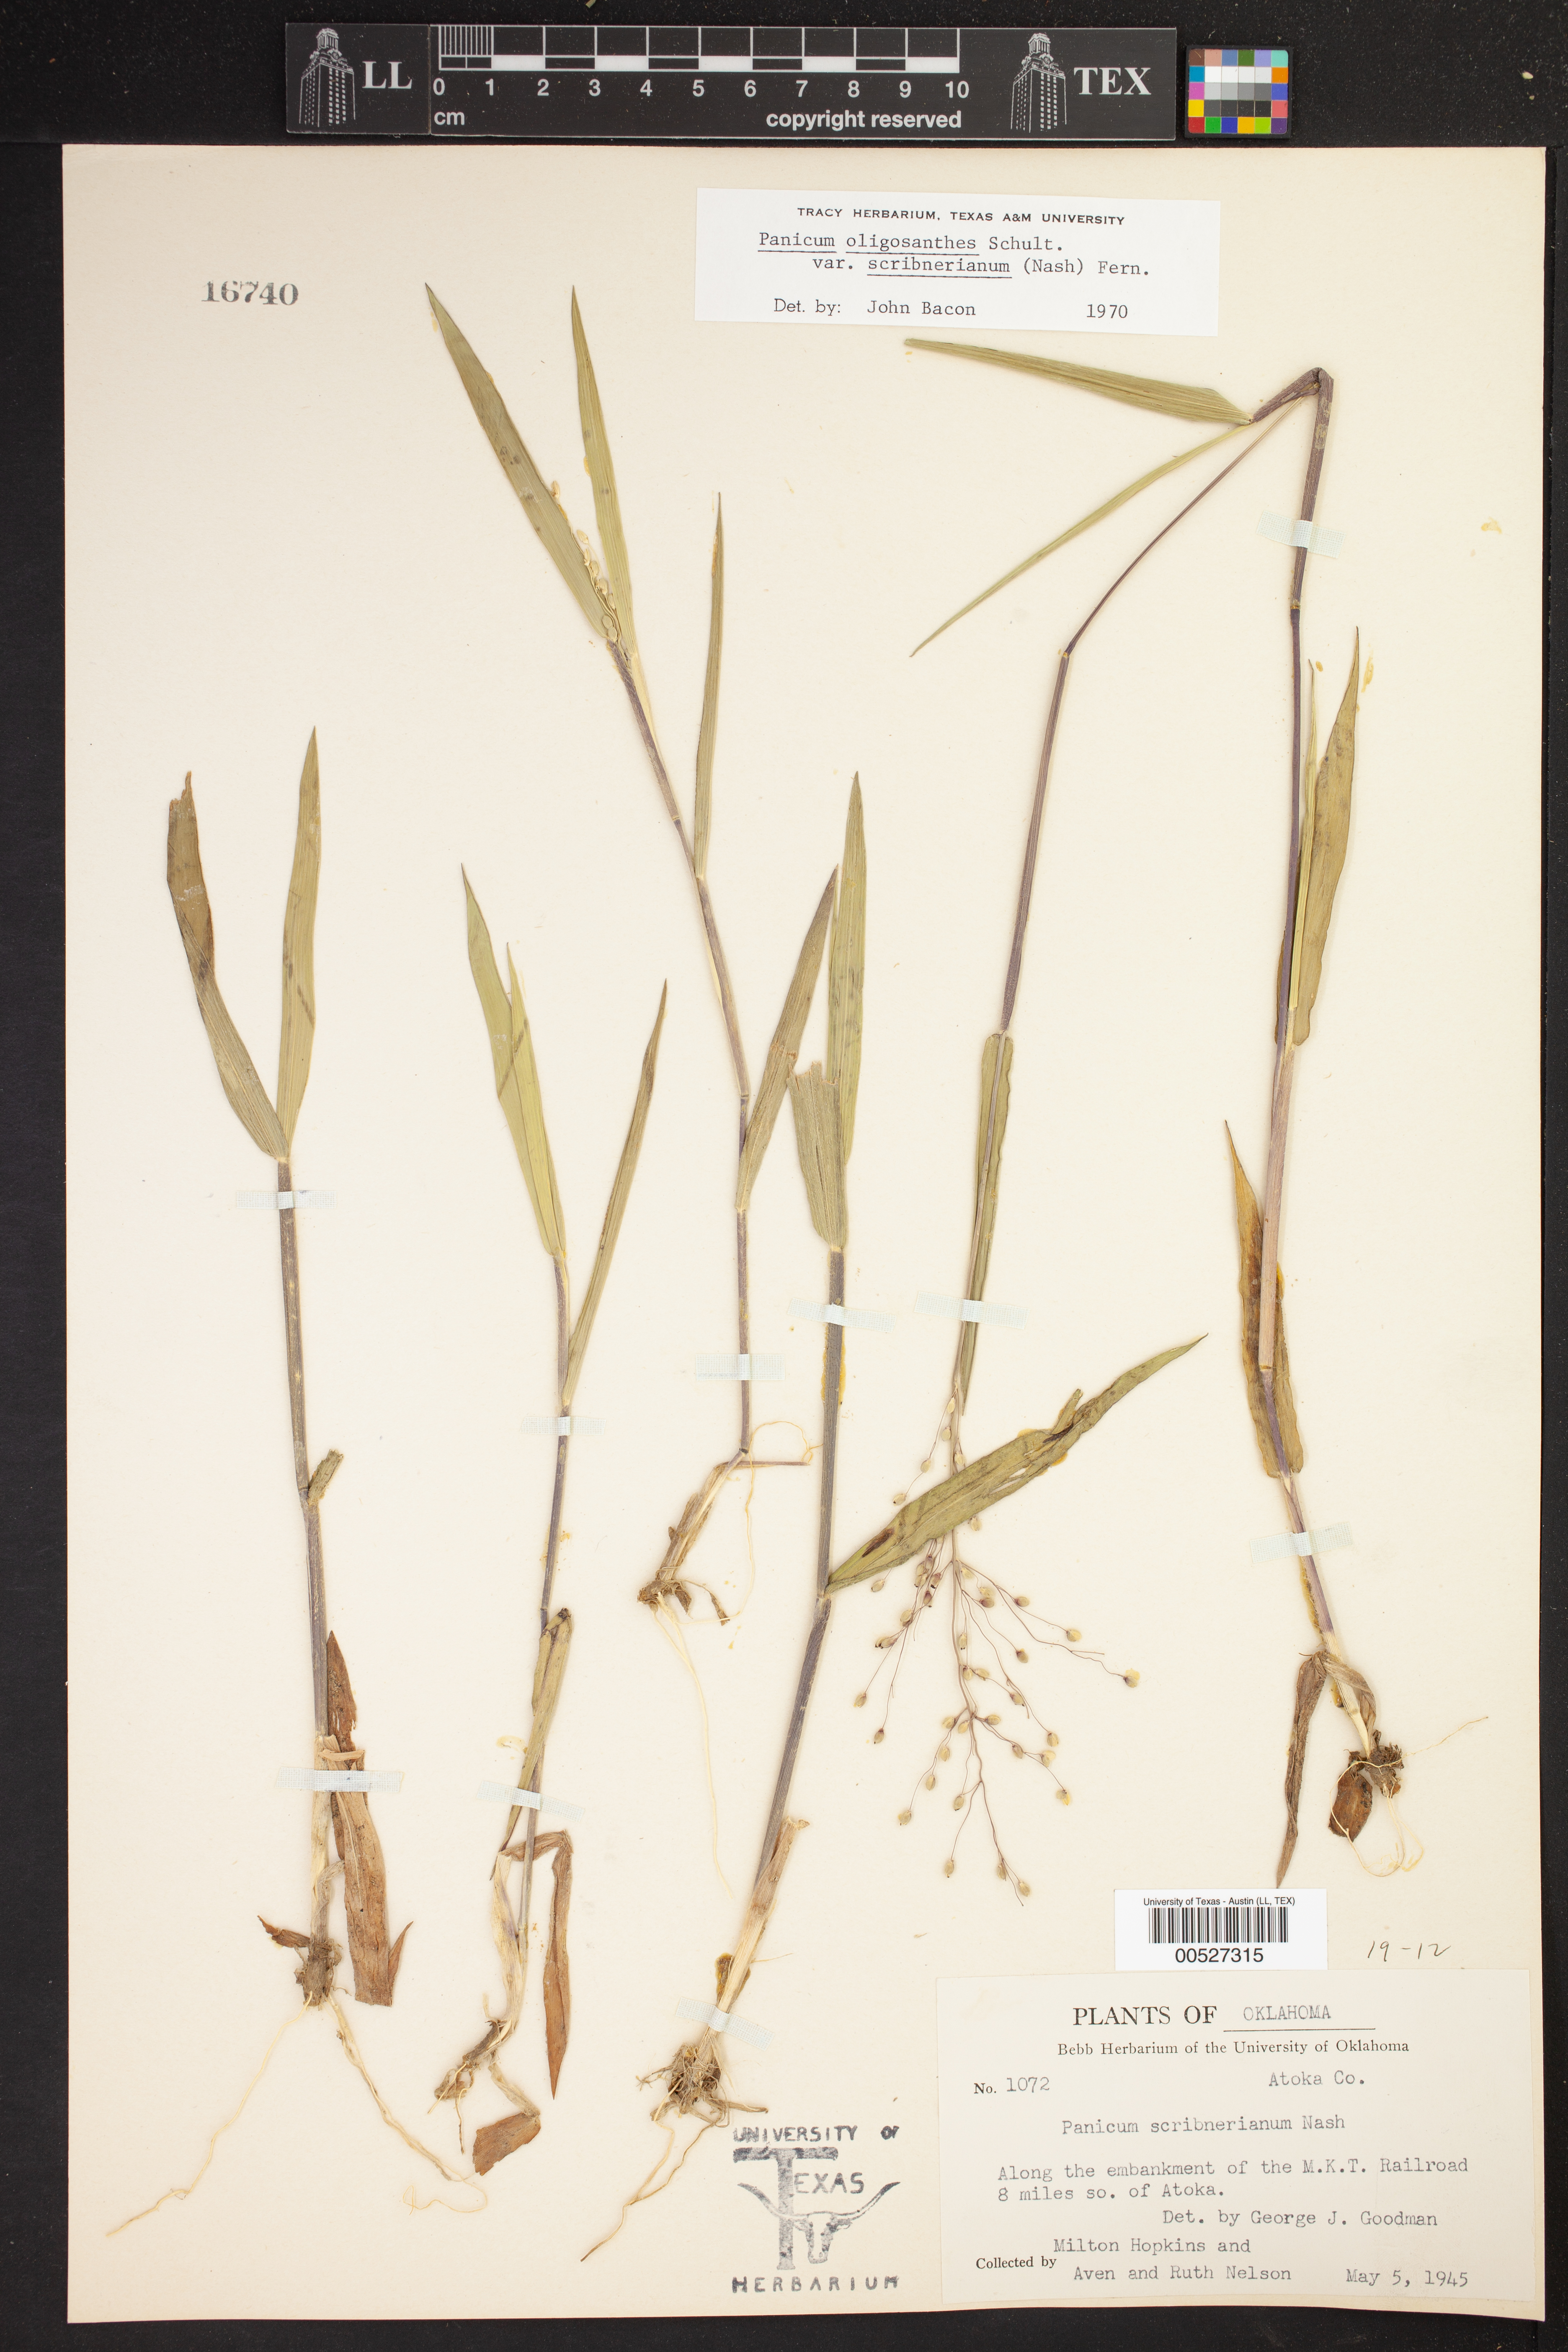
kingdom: Plantae
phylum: Tracheophyta
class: Liliopsida
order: Poales
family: Poaceae
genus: Dichanthelium
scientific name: Dichanthelium scribnerianum
